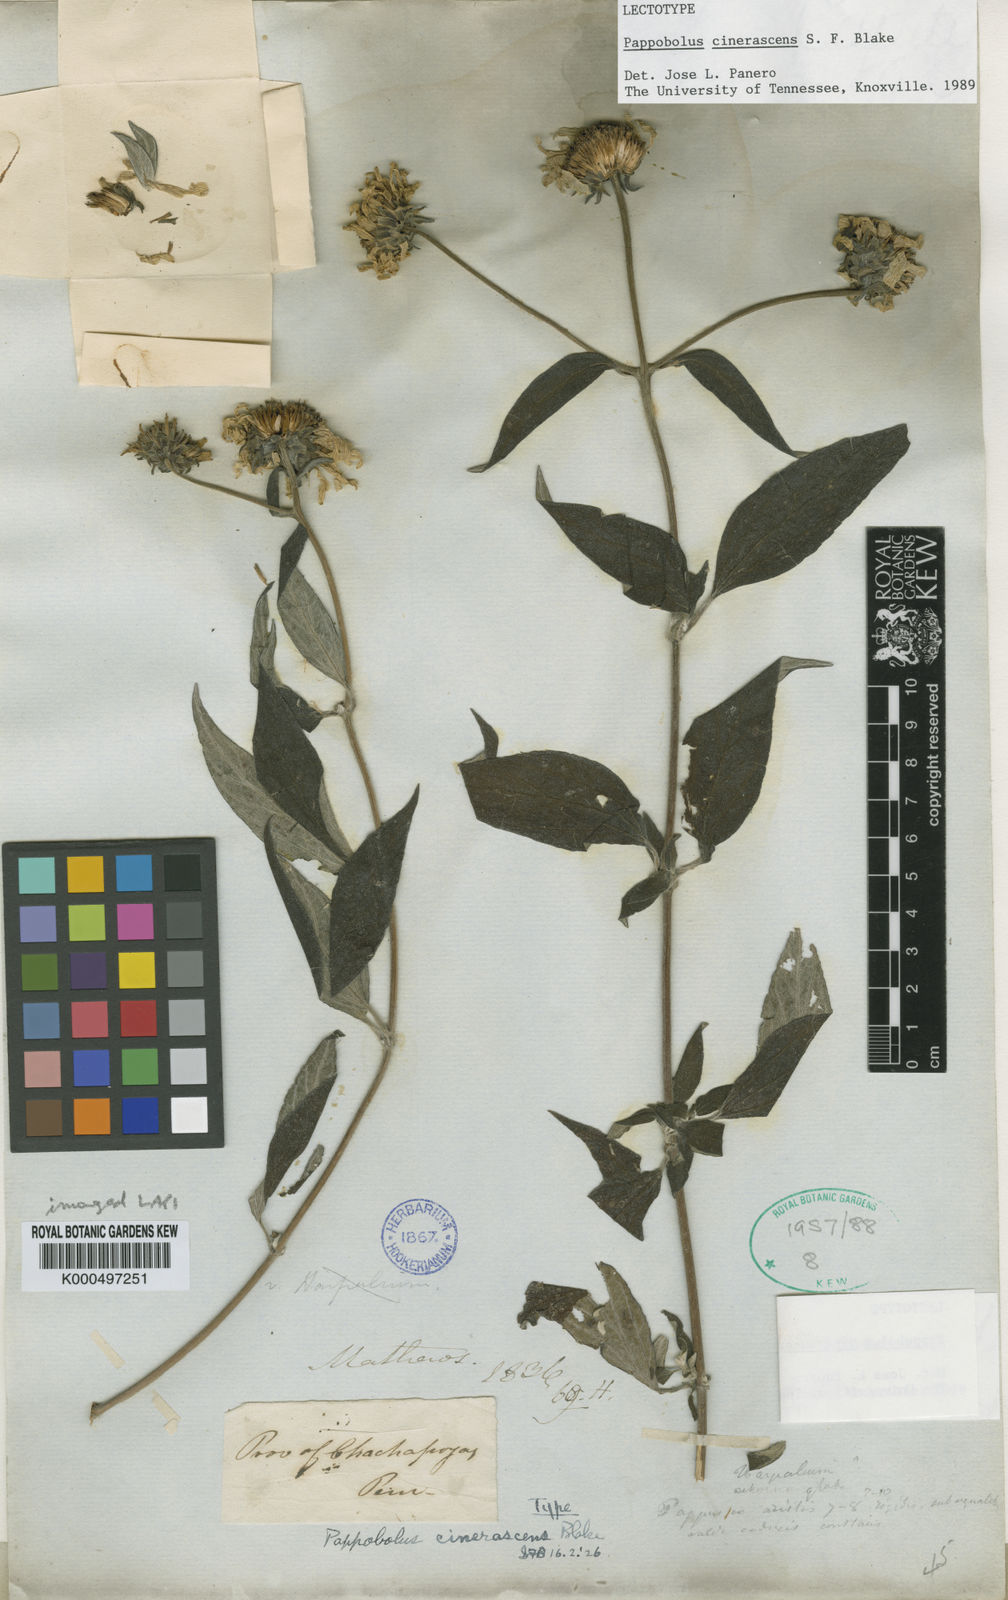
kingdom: Plantae
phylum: Tracheophyta
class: Magnoliopsida
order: Asterales
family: Asteraceae
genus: Pappobolus
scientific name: Pappobolus cinerascens
